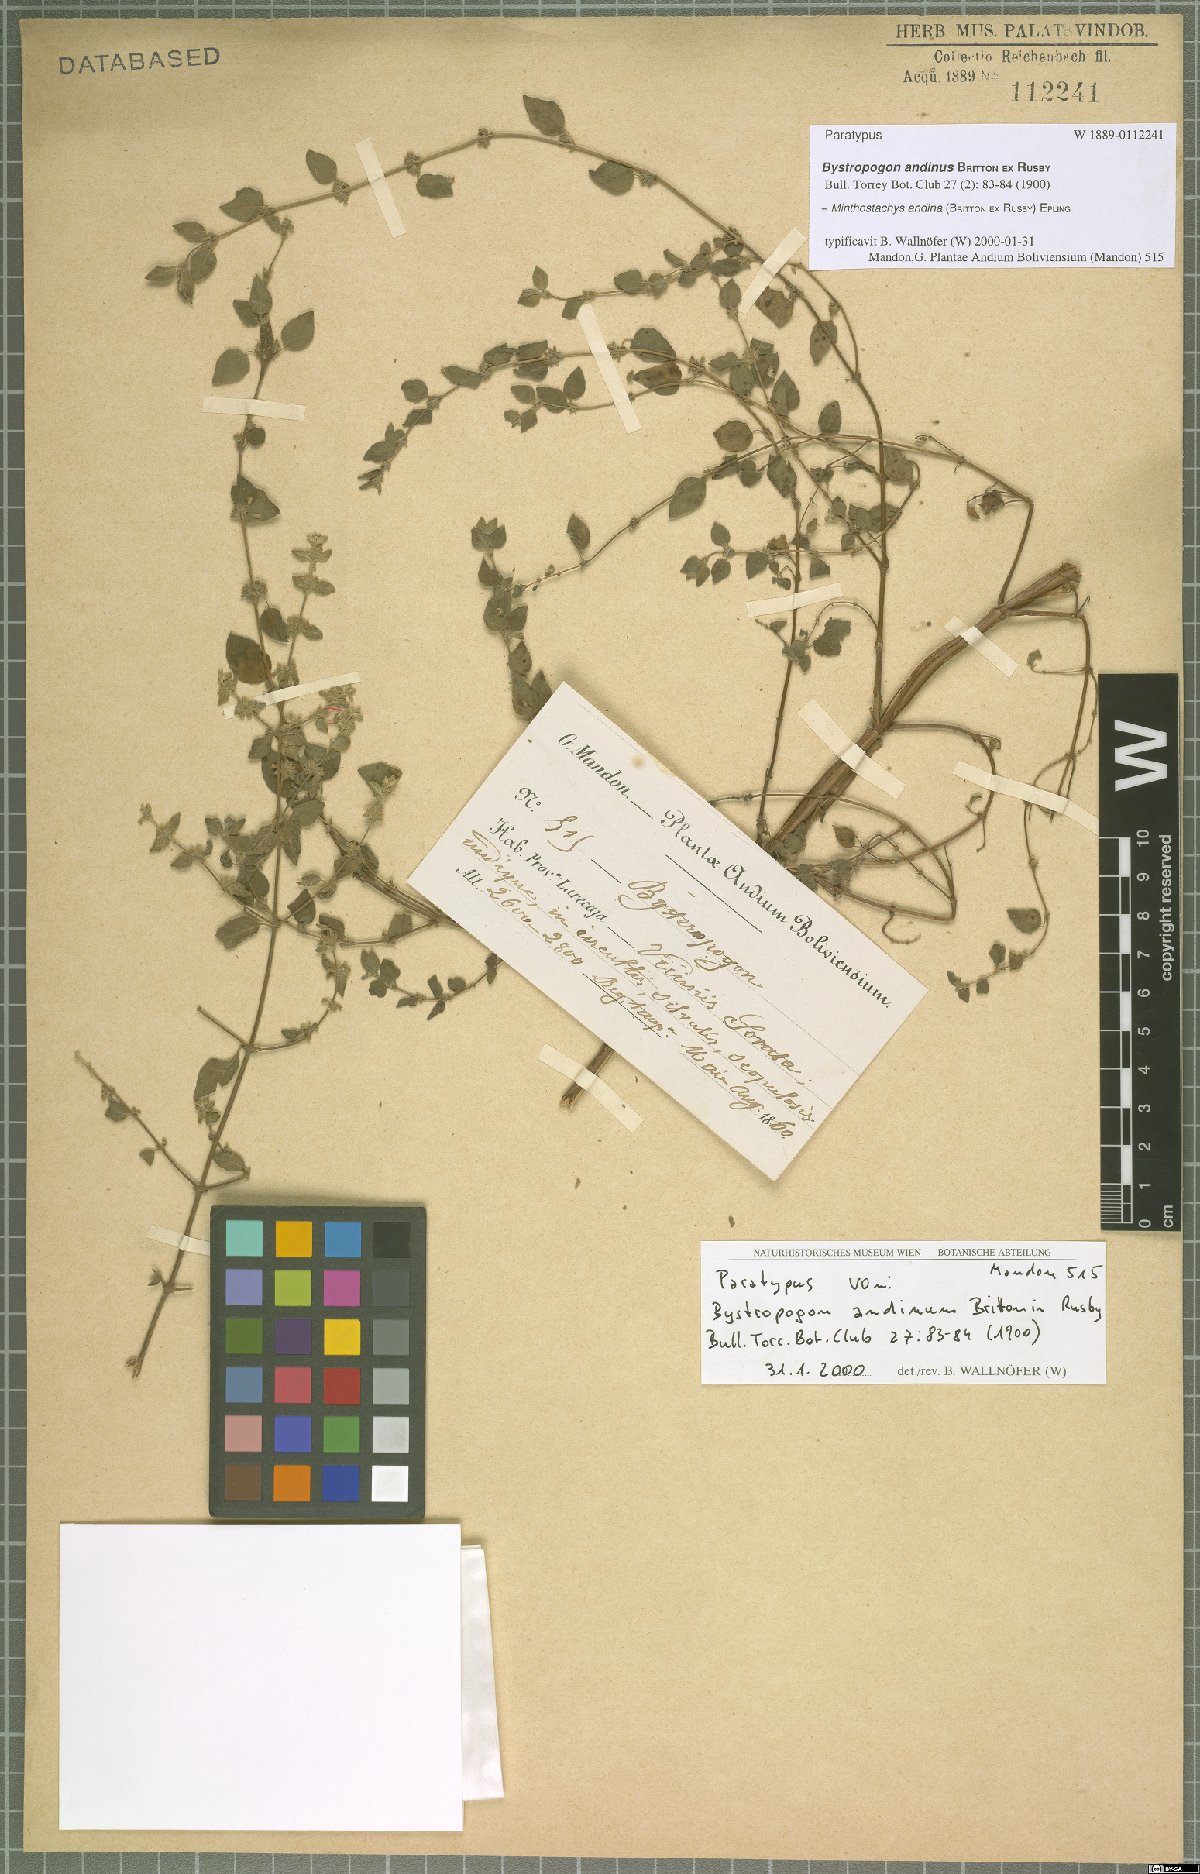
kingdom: Plantae
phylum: Tracheophyta
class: Magnoliopsida
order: Lamiales
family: Lamiaceae
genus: Minthostachys
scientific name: Minthostachys andina
